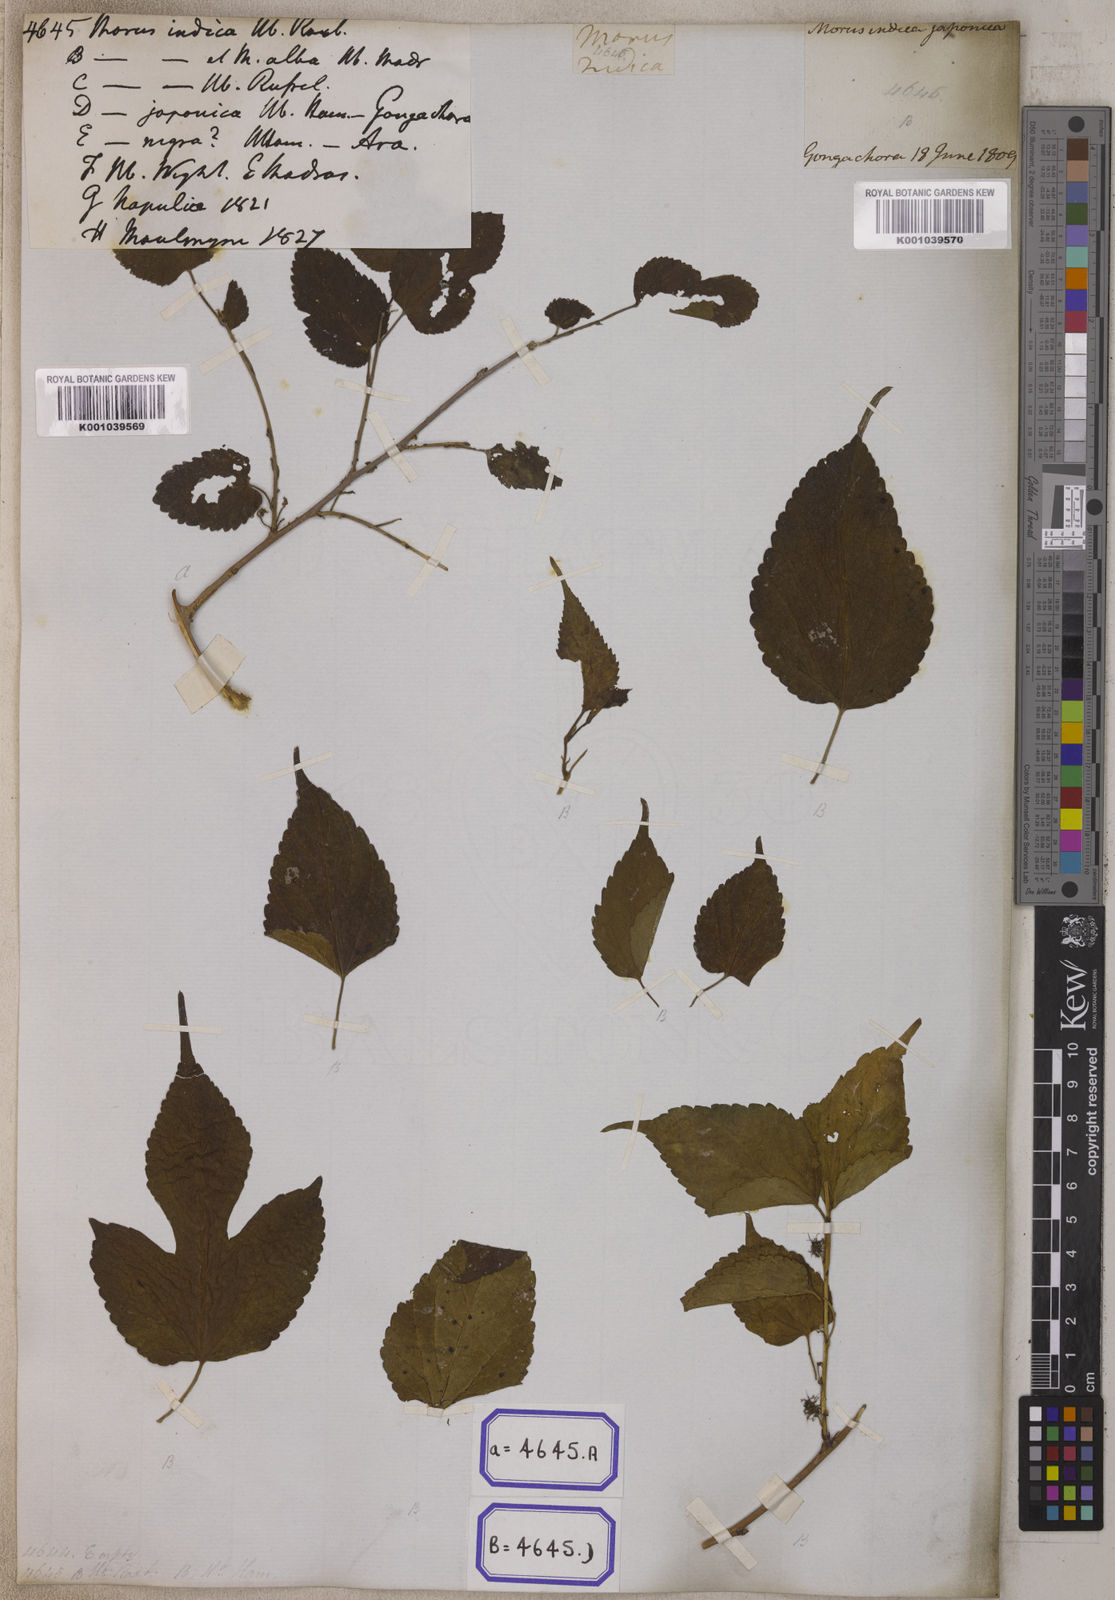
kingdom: Plantae
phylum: Tracheophyta
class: Magnoliopsida
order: Rosales
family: Moraceae
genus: Morus
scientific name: Morus indica
